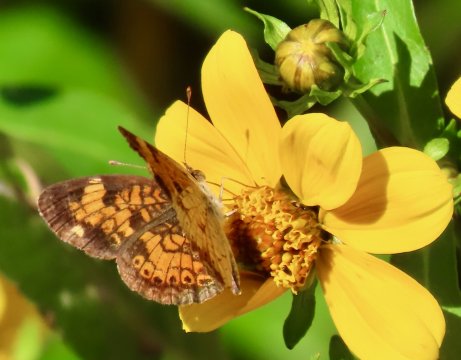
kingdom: Animalia
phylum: Arthropoda
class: Insecta
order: Lepidoptera
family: Nymphalidae
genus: Phyciodes
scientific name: Phyciodes tharos
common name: Pearl Crescent
